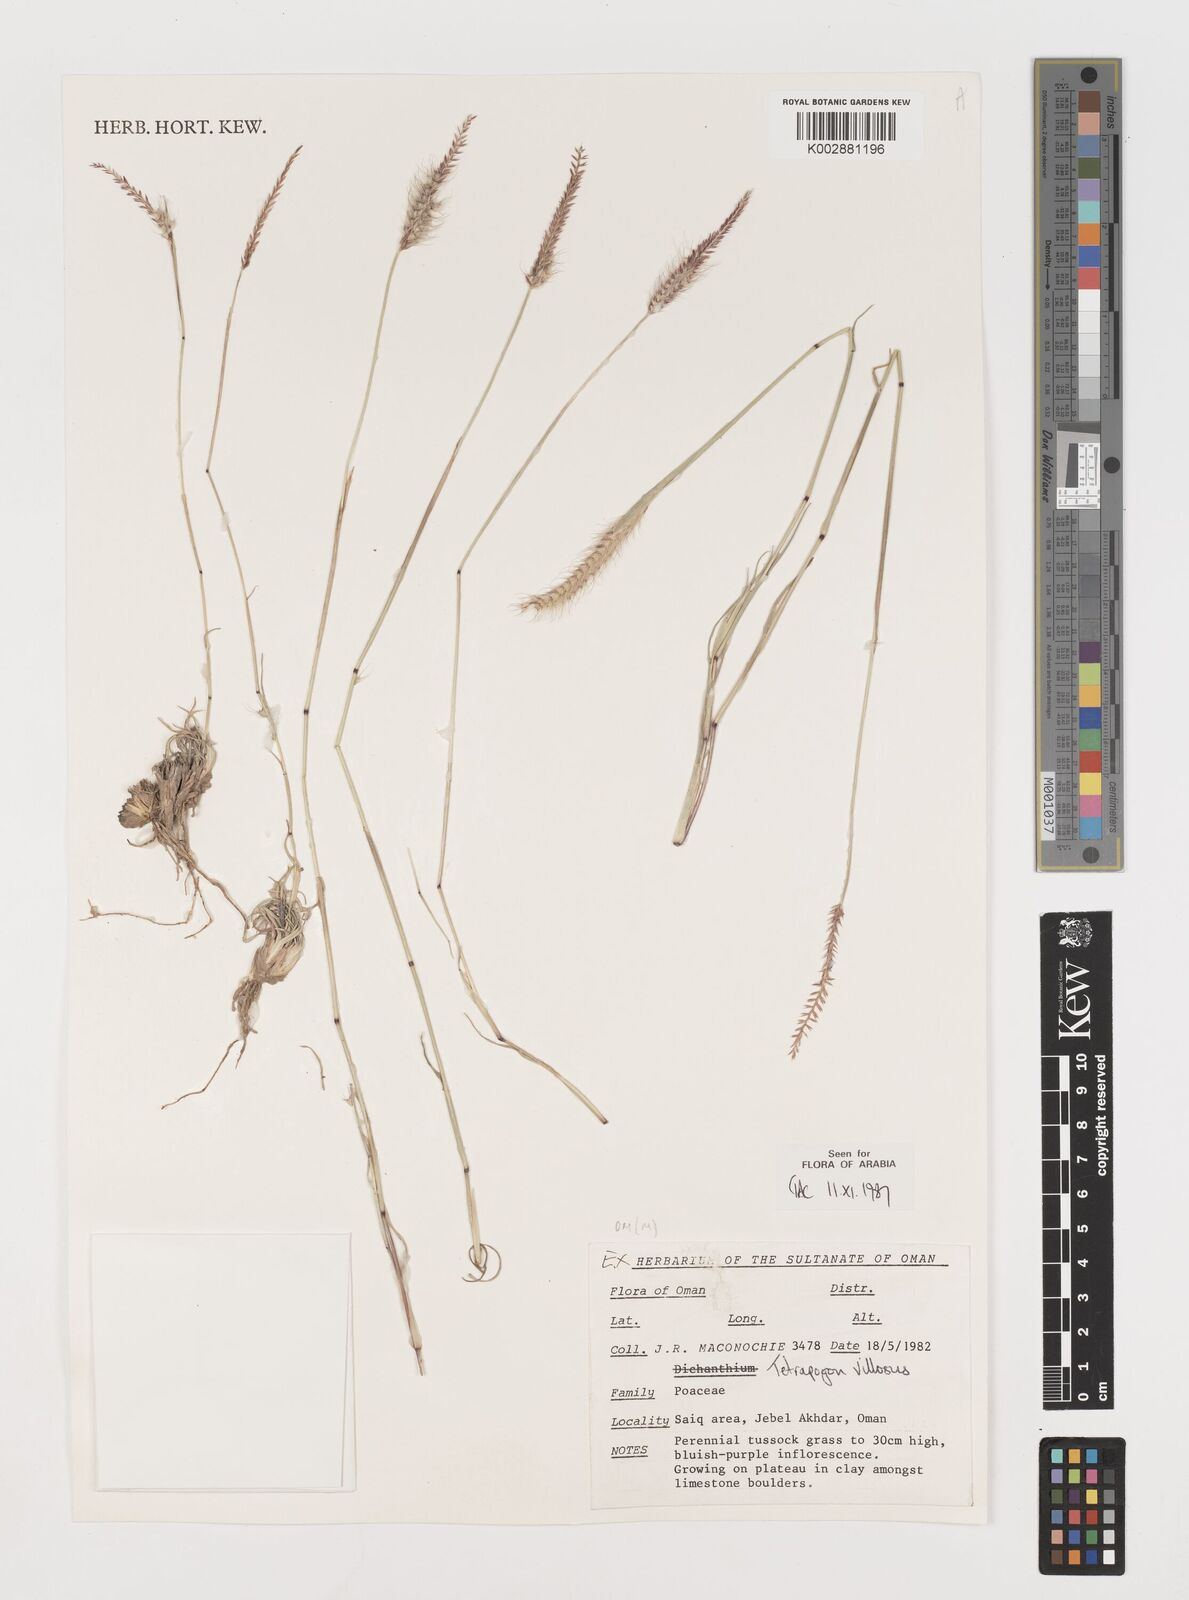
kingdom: Plantae
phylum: Tracheophyta
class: Liliopsida
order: Poales
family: Poaceae
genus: Tetrapogon
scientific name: Tetrapogon villosus
